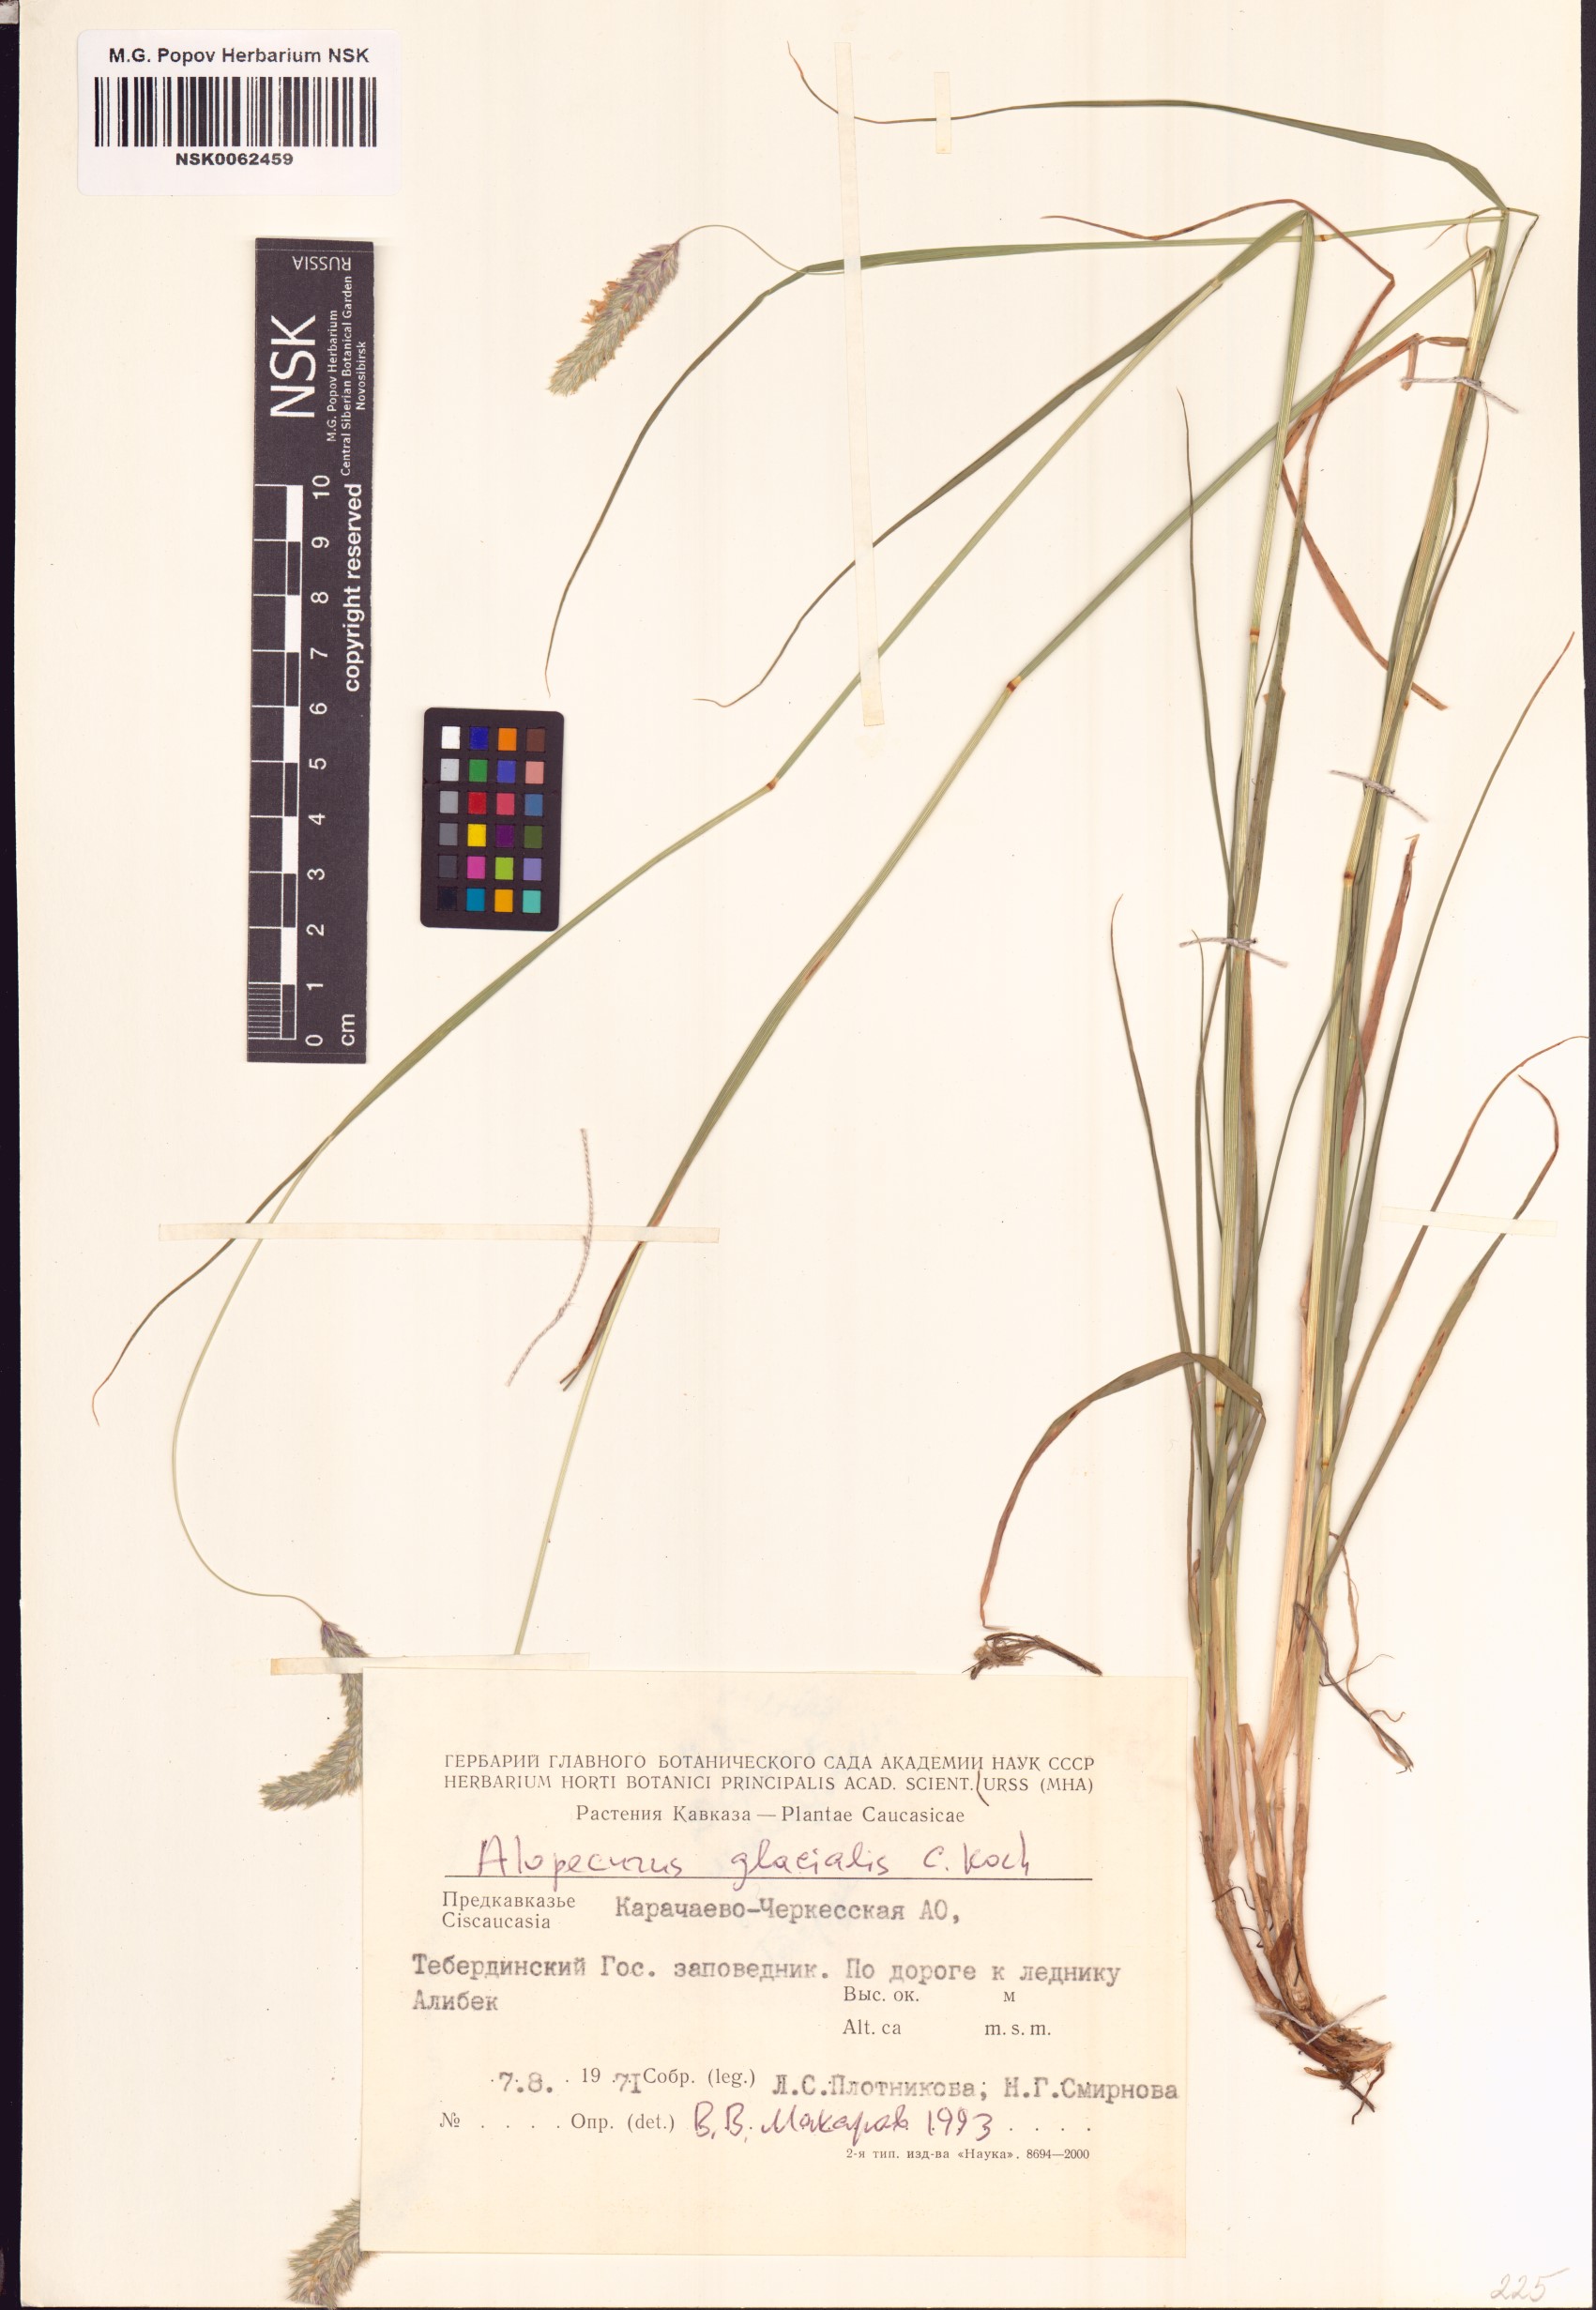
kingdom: Plantae
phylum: Tracheophyta
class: Liliopsida
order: Poales
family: Poaceae
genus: Alopecurus
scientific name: Alopecurus glacialis
